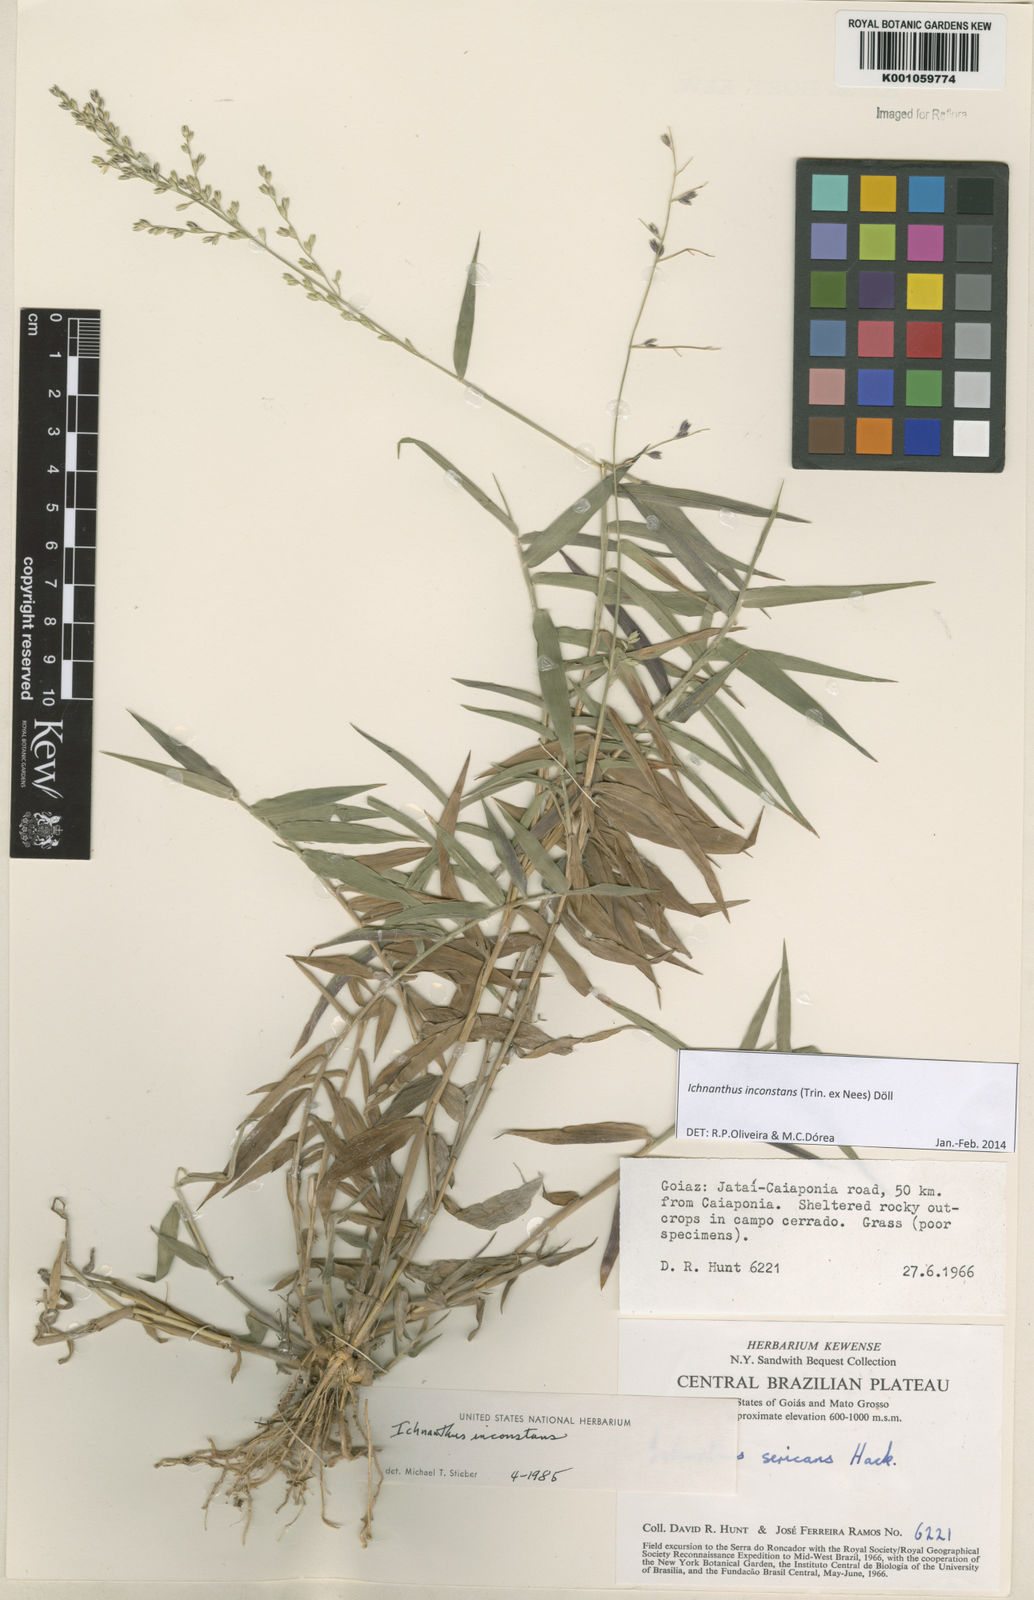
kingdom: Plantae
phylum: Tracheophyta
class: Liliopsida
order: Poales
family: Poaceae
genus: Ichnanthus
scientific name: Ichnanthus
